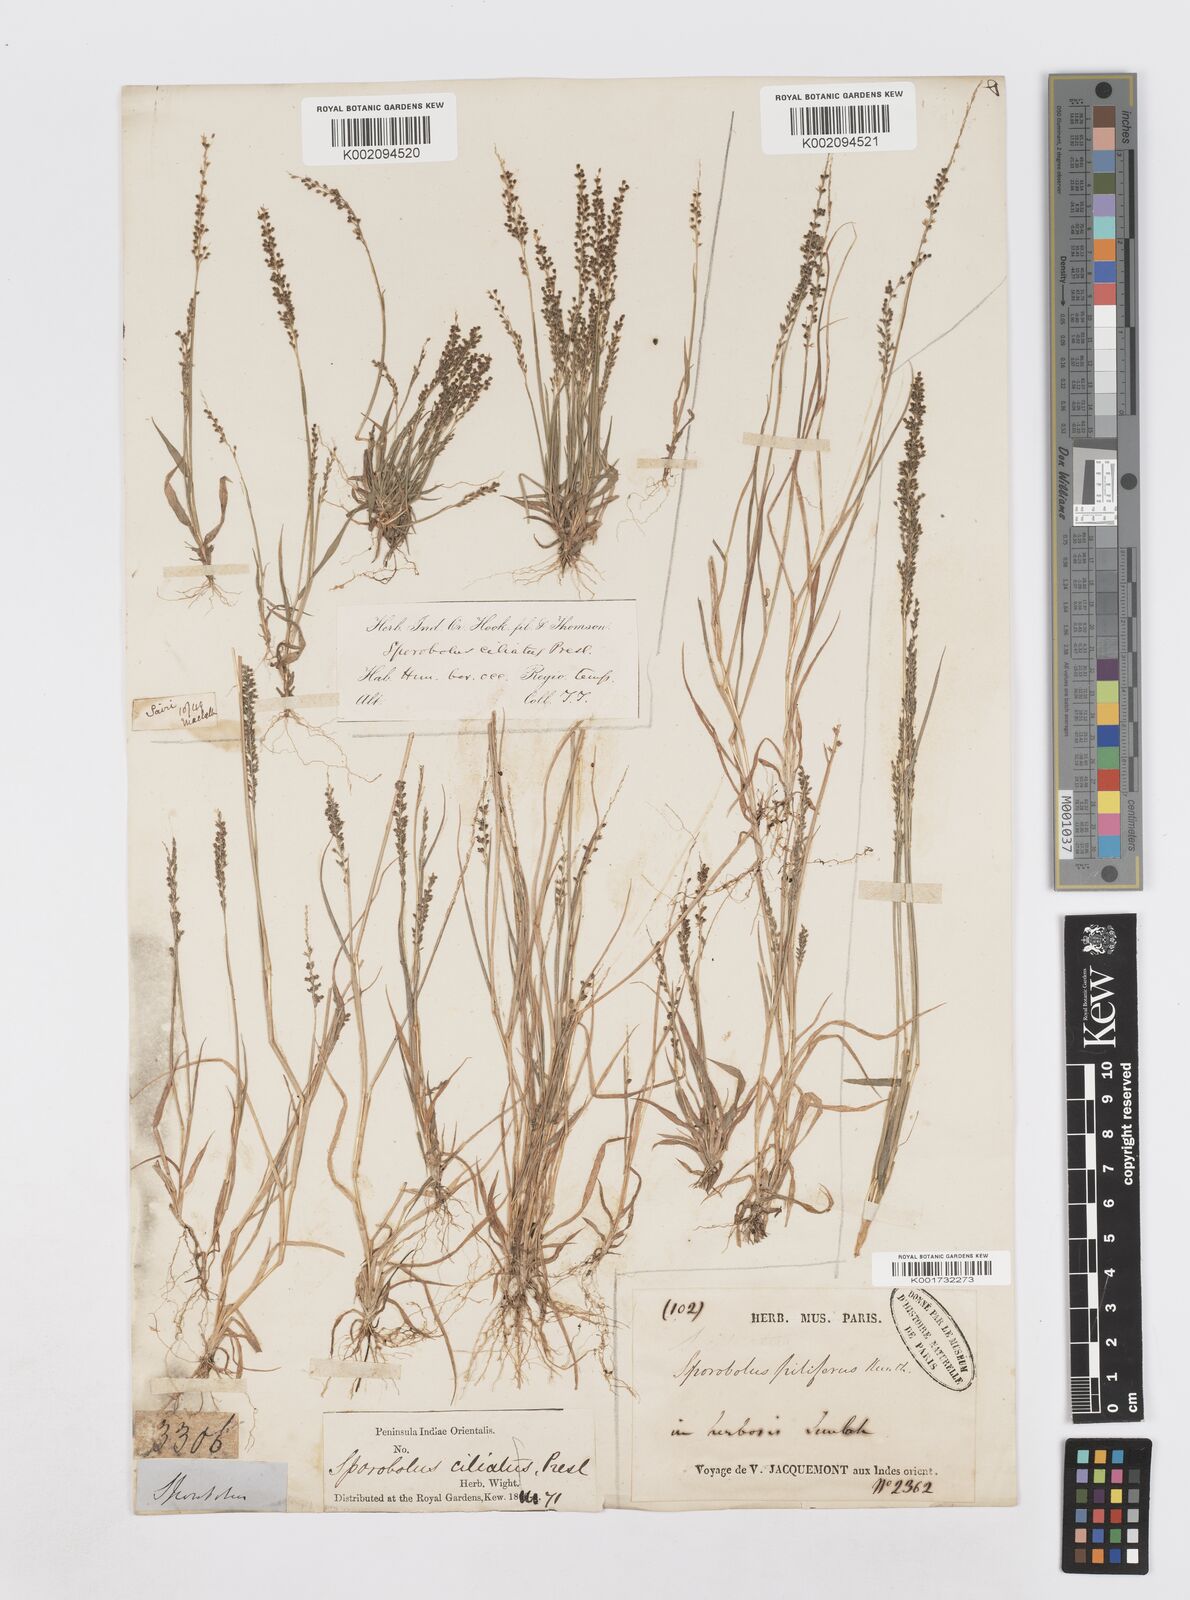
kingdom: Plantae
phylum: Tracheophyta
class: Liliopsida
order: Poales
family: Poaceae
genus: Sporobolus
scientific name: Sporobolus pilifer
